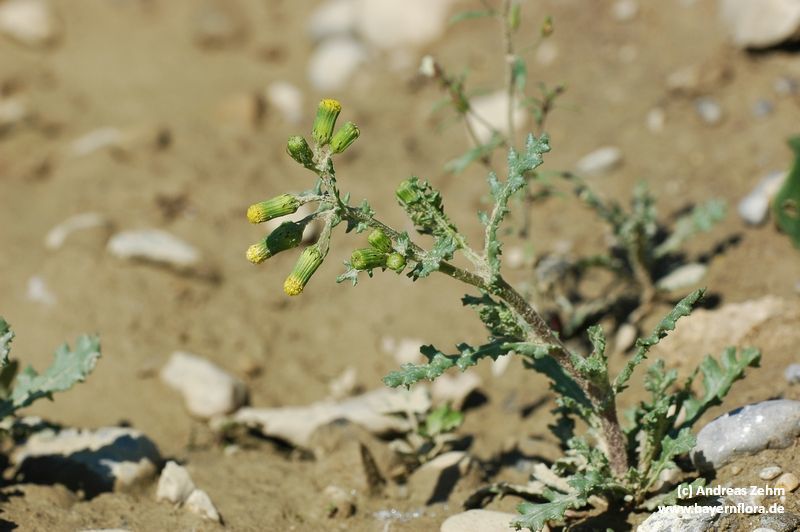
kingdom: Plantae
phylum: Tracheophyta
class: Magnoliopsida
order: Asterales
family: Asteraceae
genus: Senecio
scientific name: Senecio vulgaris
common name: Old-man-in-the-spring
